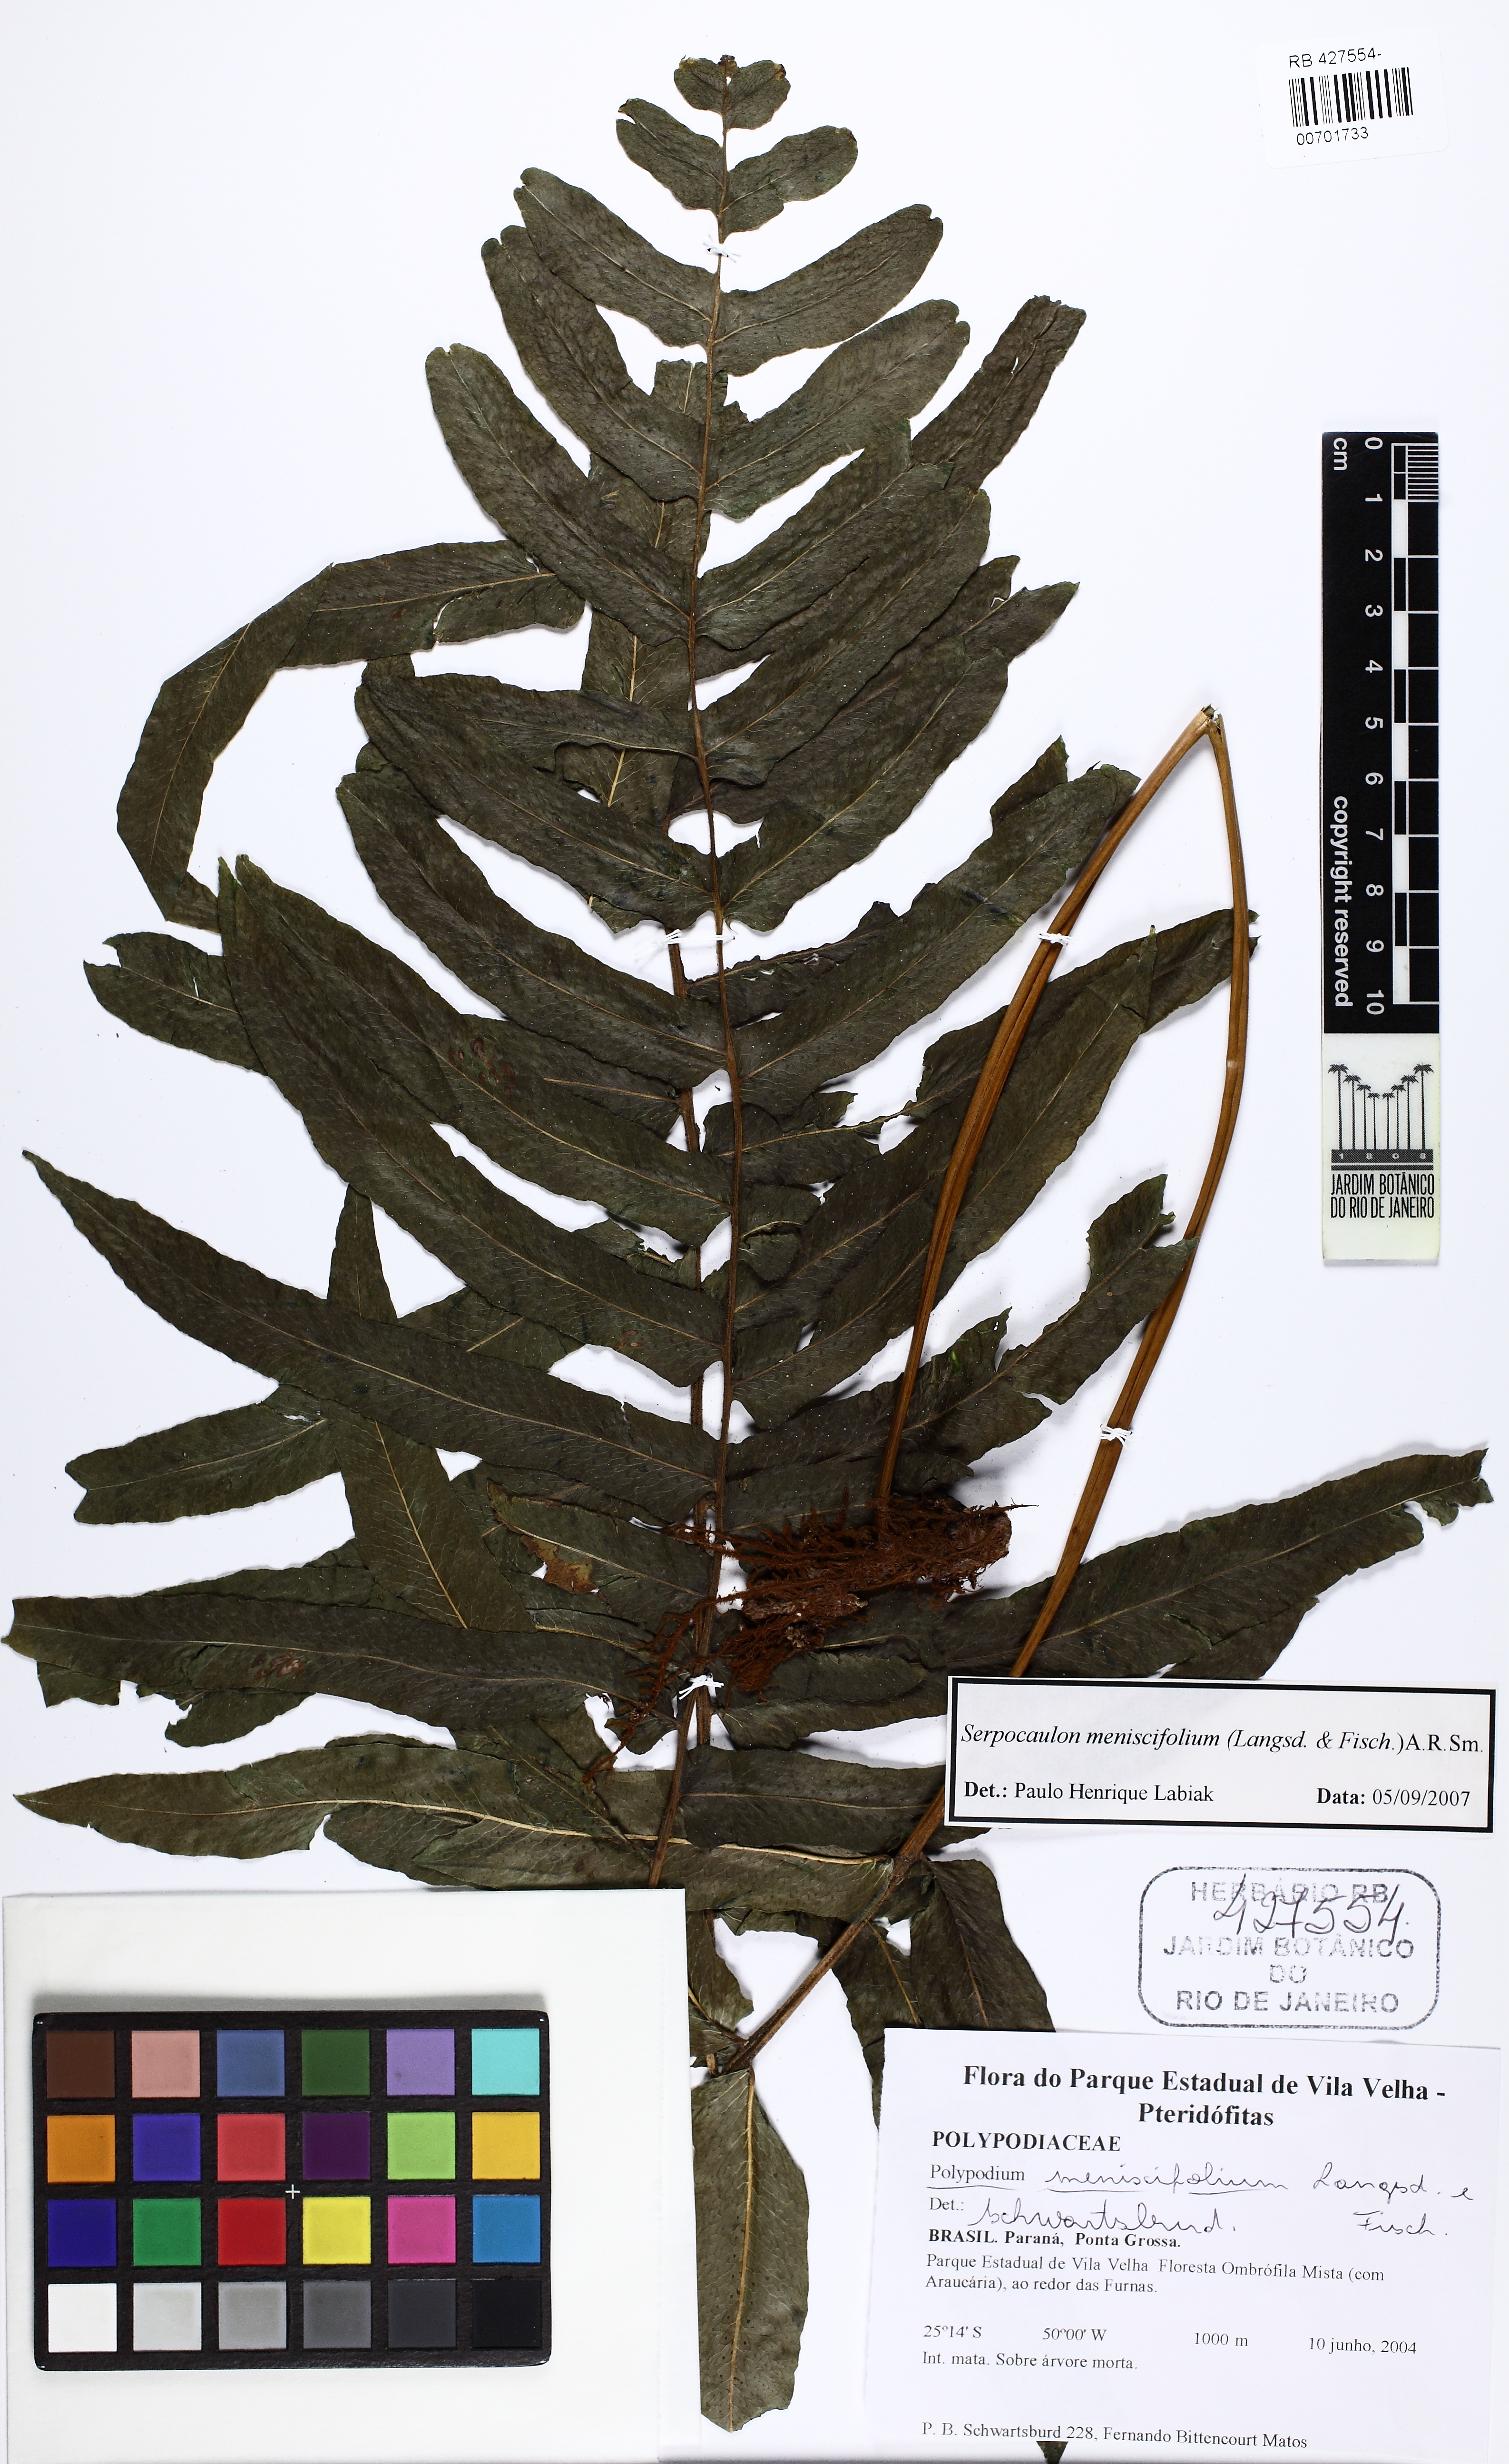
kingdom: Plantae
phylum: Tracheophyta
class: Polypodiopsida
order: Polypodiales
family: Polypodiaceae
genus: Serpocaulon
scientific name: Serpocaulon menisciifolium
